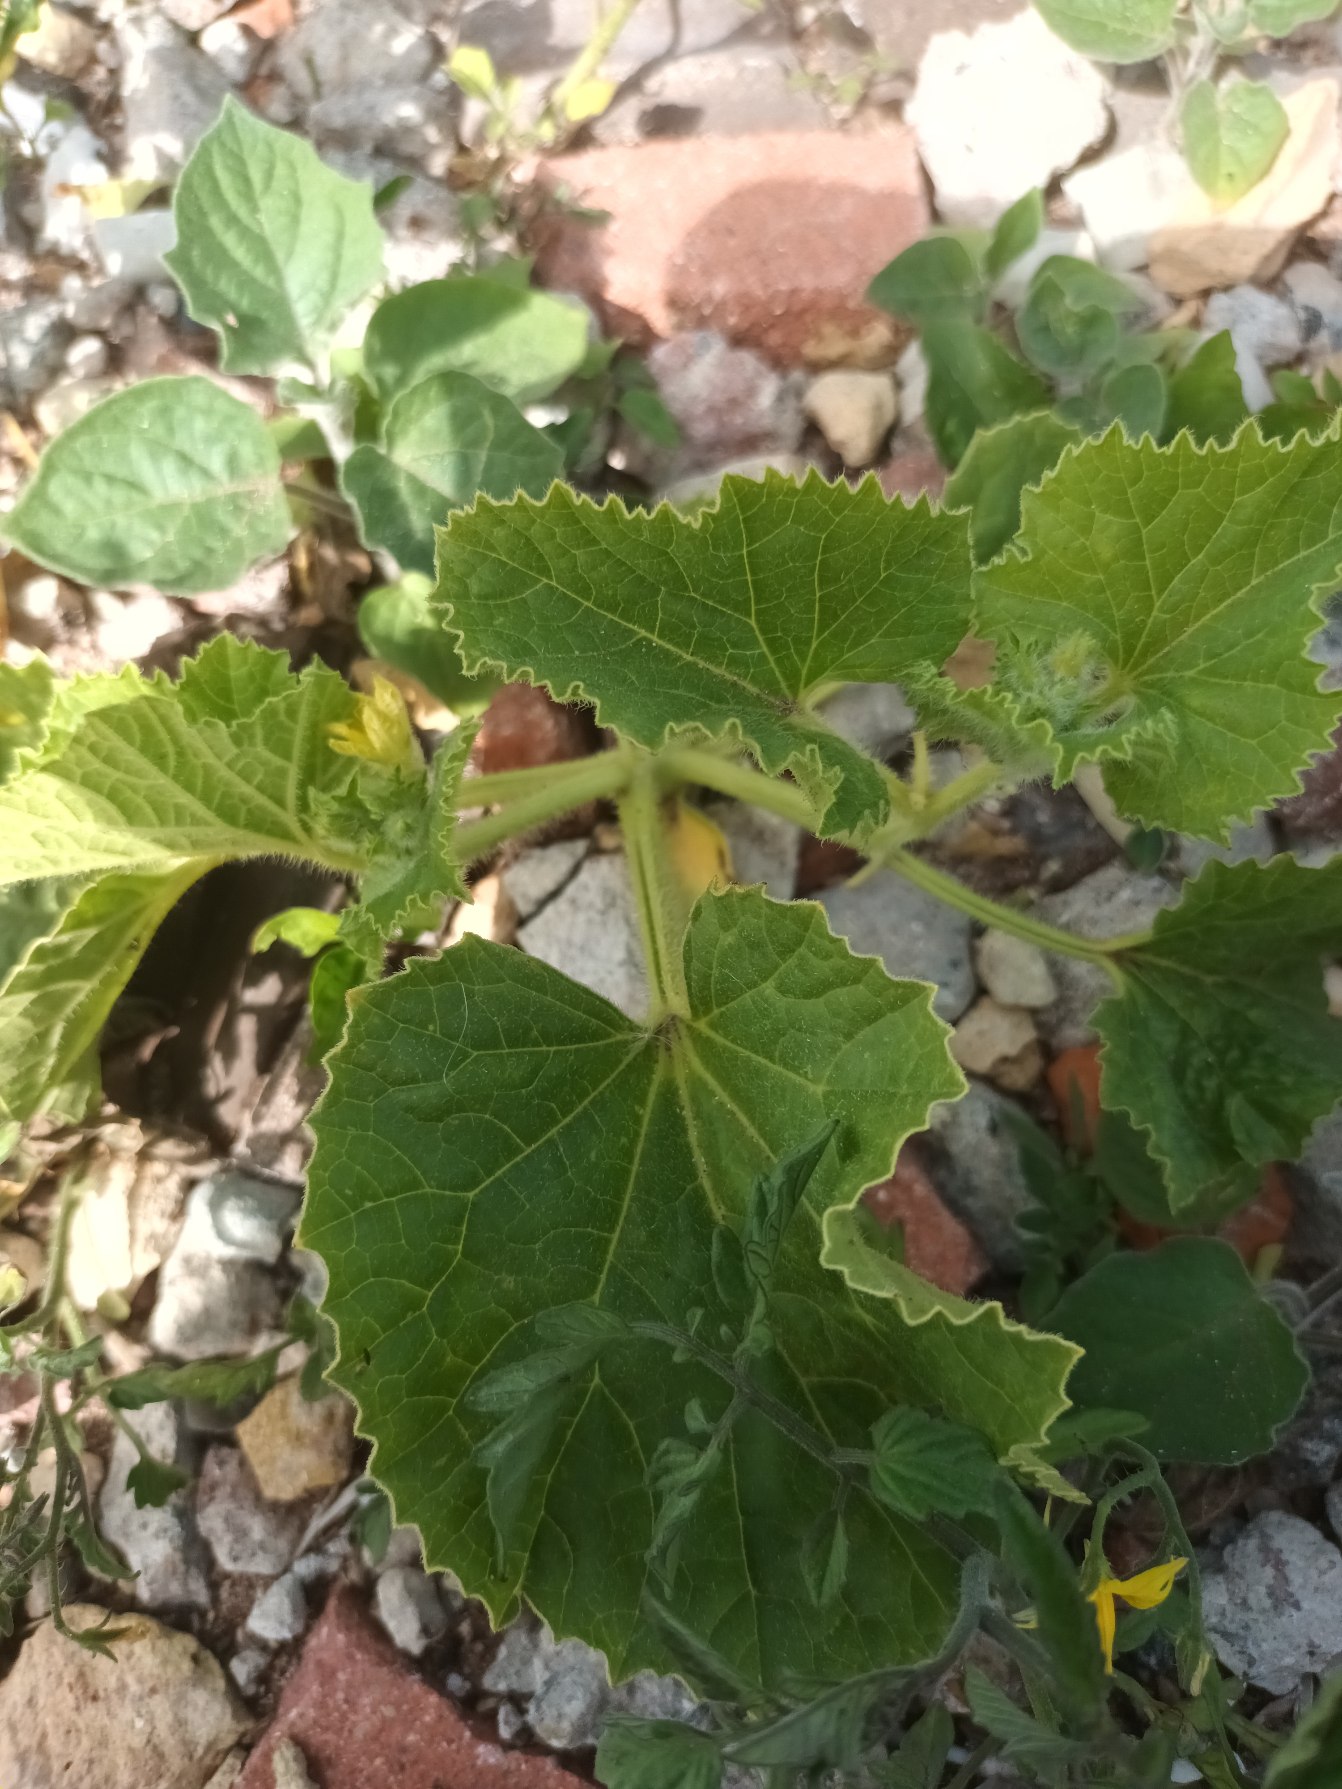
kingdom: Plantae
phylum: Tracheophyta
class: Magnoliopsida
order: Cucurbitales
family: Cucurbitaceae
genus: Cucumis
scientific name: Cucumis sativus
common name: Agurk
